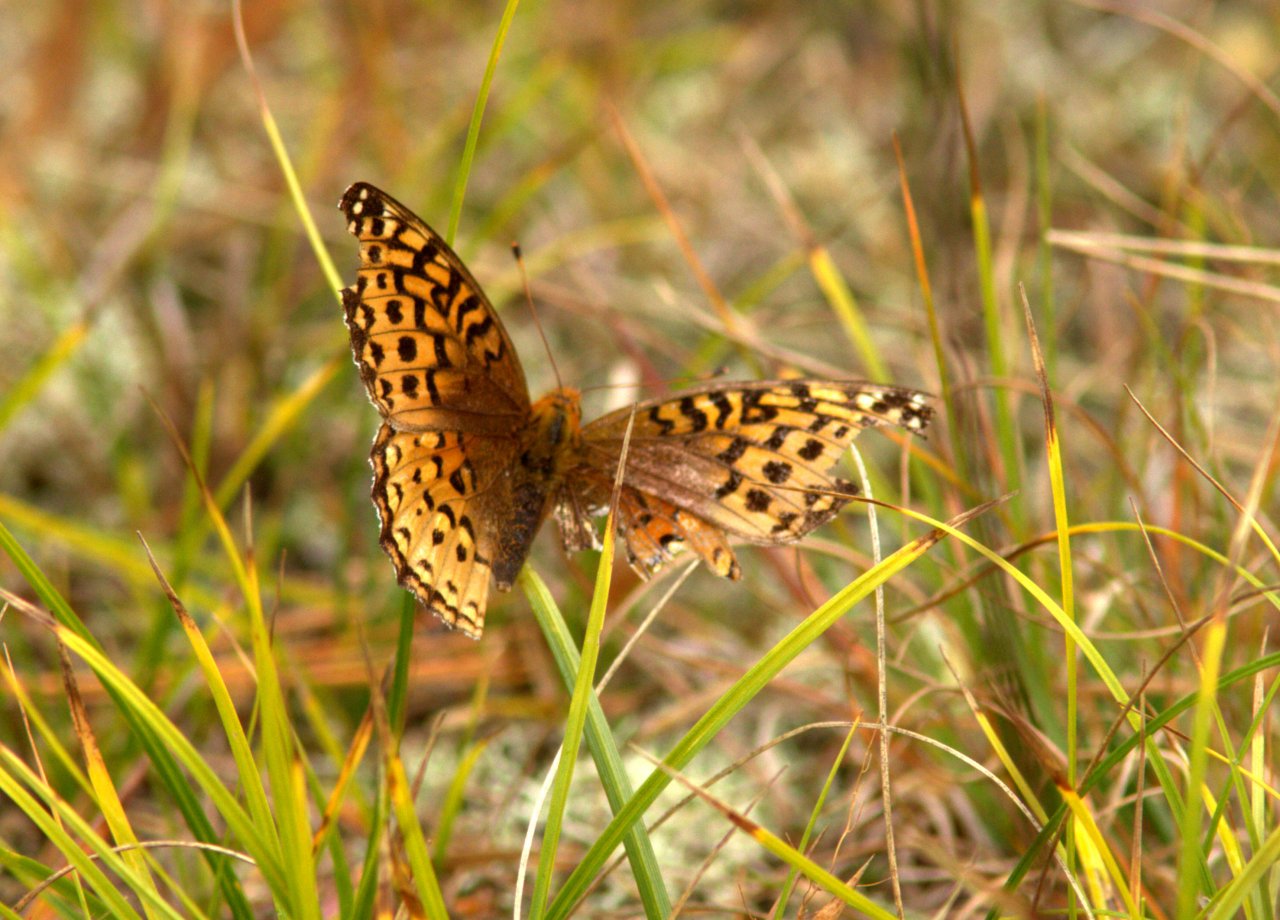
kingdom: Animalia
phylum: Arthropoda
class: Insecta
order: Lepidoptera
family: Nymphalidae
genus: Speyeria
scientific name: Speyeria aphrodite
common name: Aphrodite Fritillary
